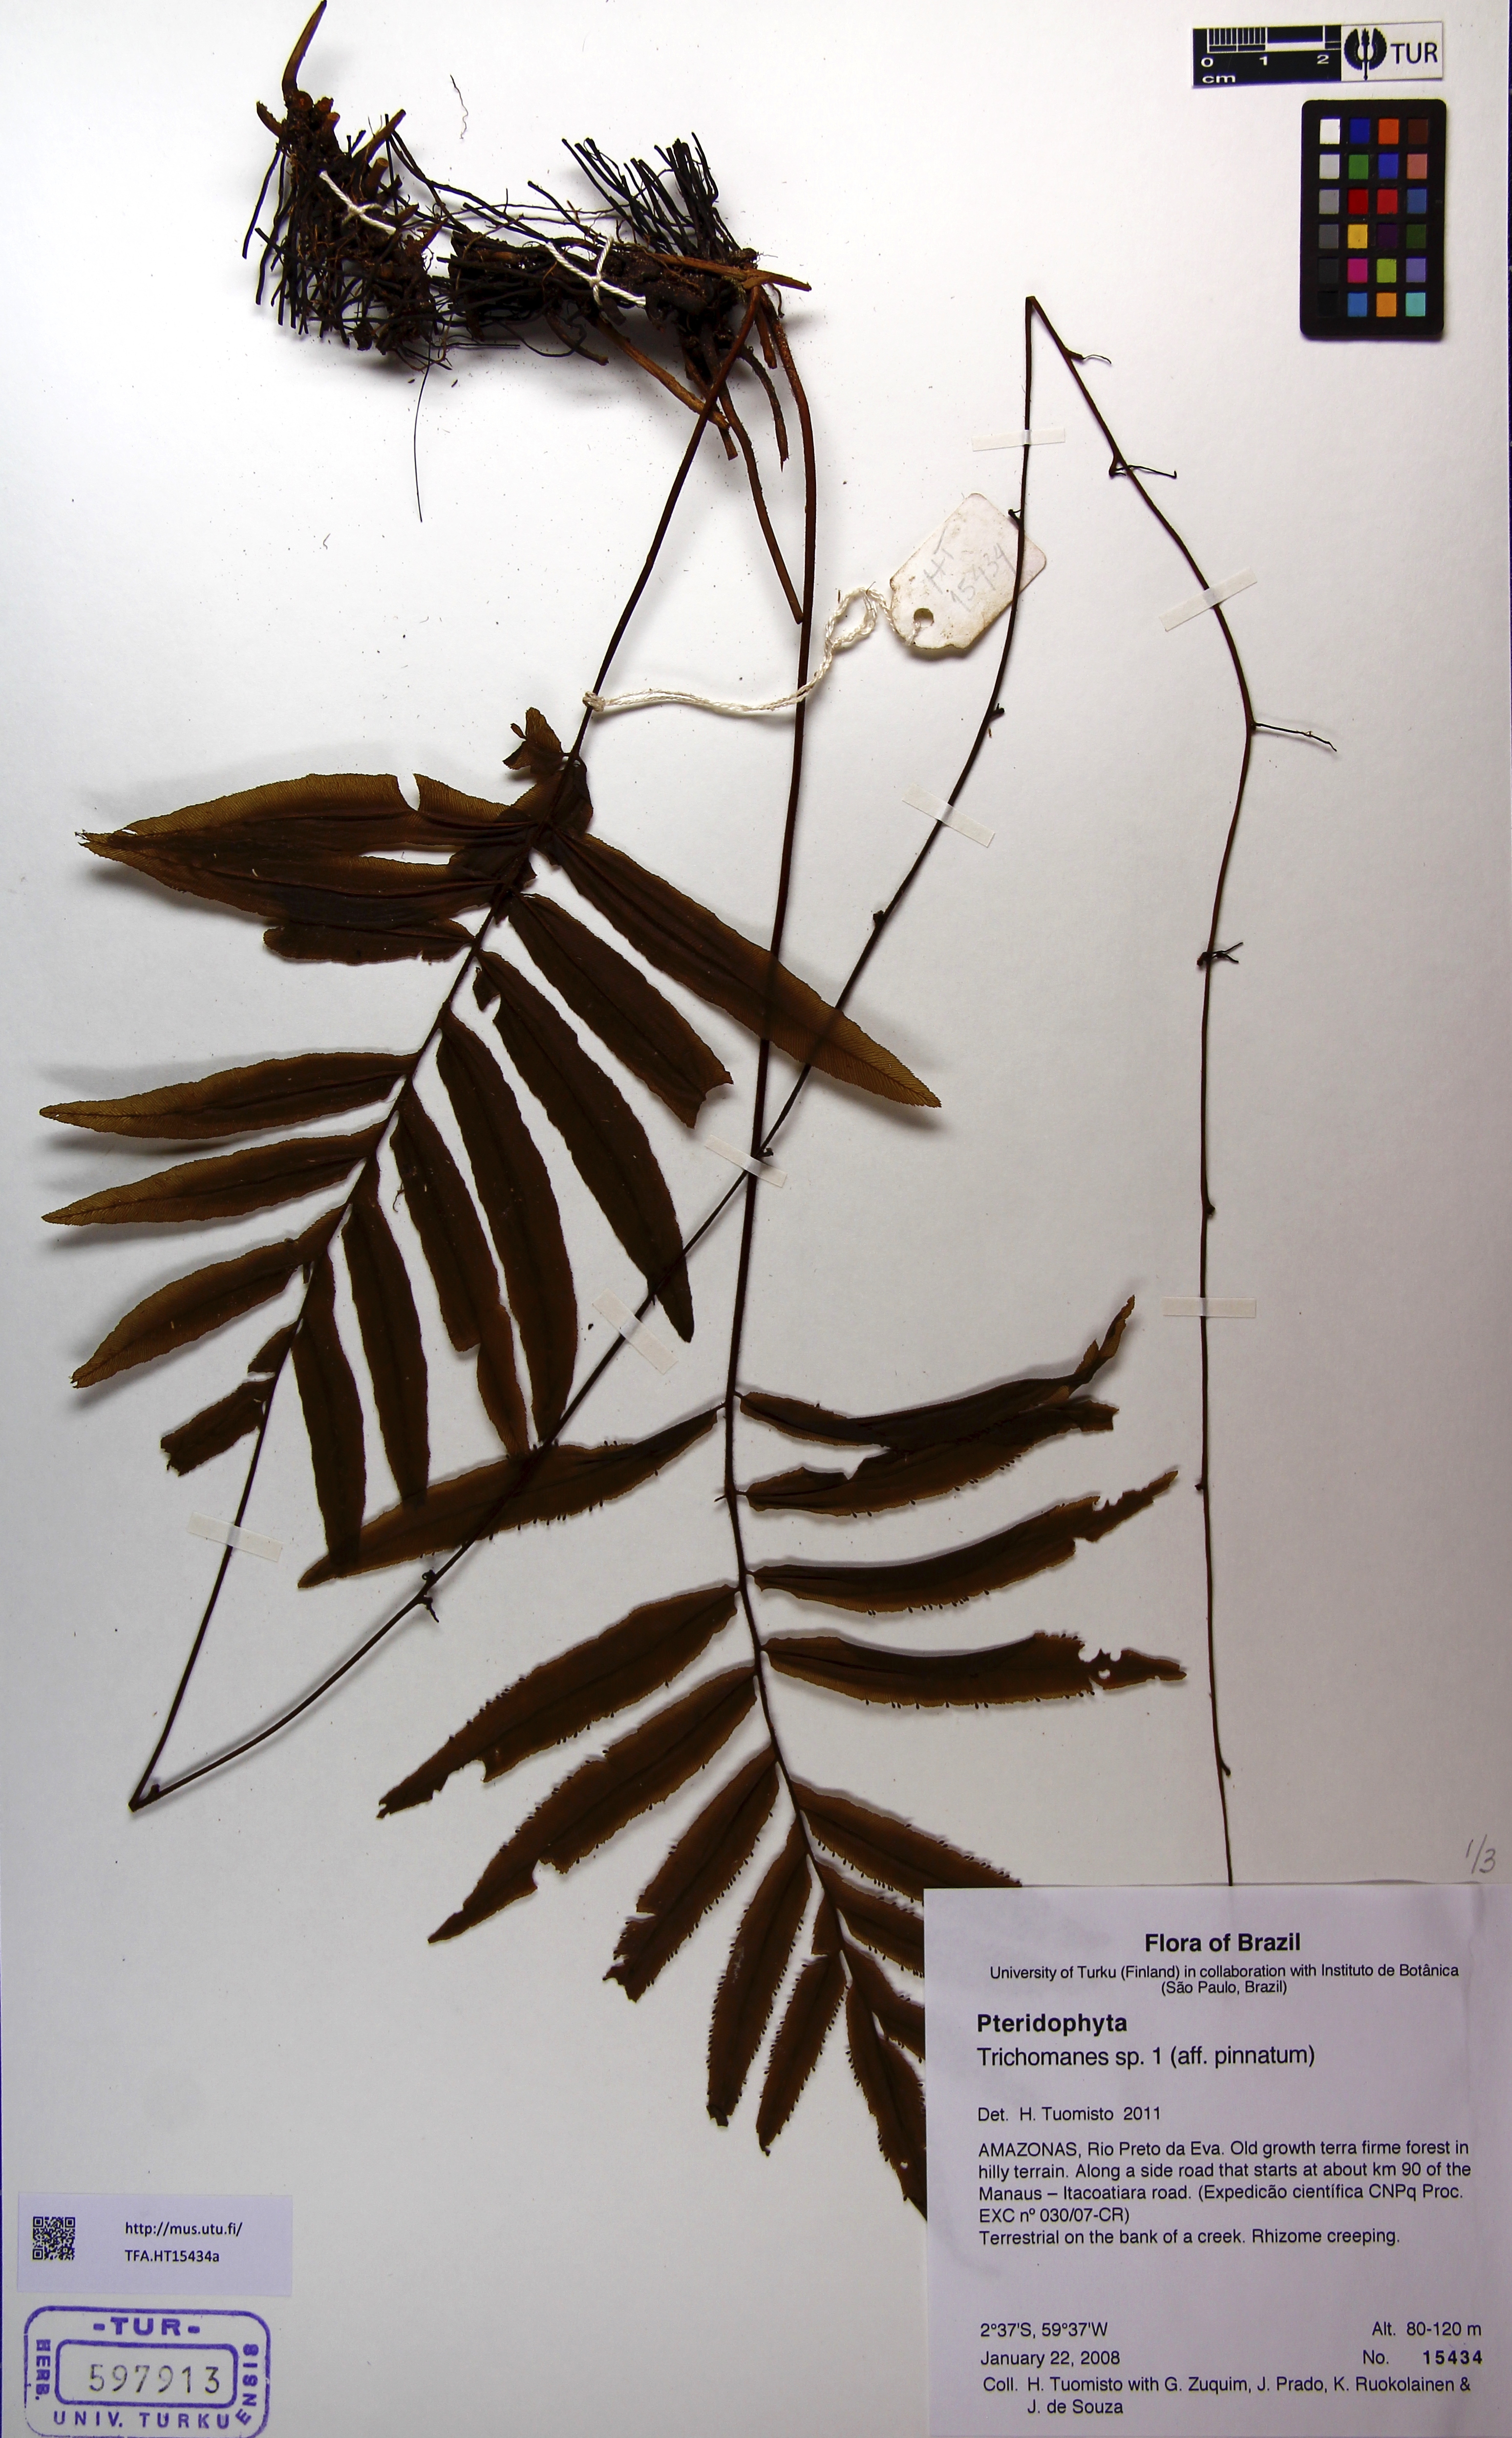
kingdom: Plantae
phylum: Tracheophyta
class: Polypodiopsida
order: Hymenophyllales
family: Hymenophyllaceae
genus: Trichomanes
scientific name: Trichomanes
